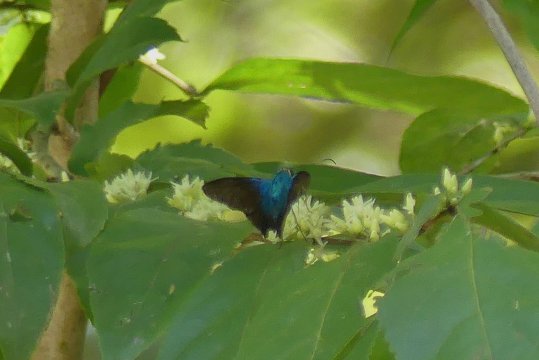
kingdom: Animalia
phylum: Arthropoda
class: Insecta
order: Lepidoptera
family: Hesperiidae
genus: Astraptes
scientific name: Astraptes megalurus
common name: Long-tailed Flasher
